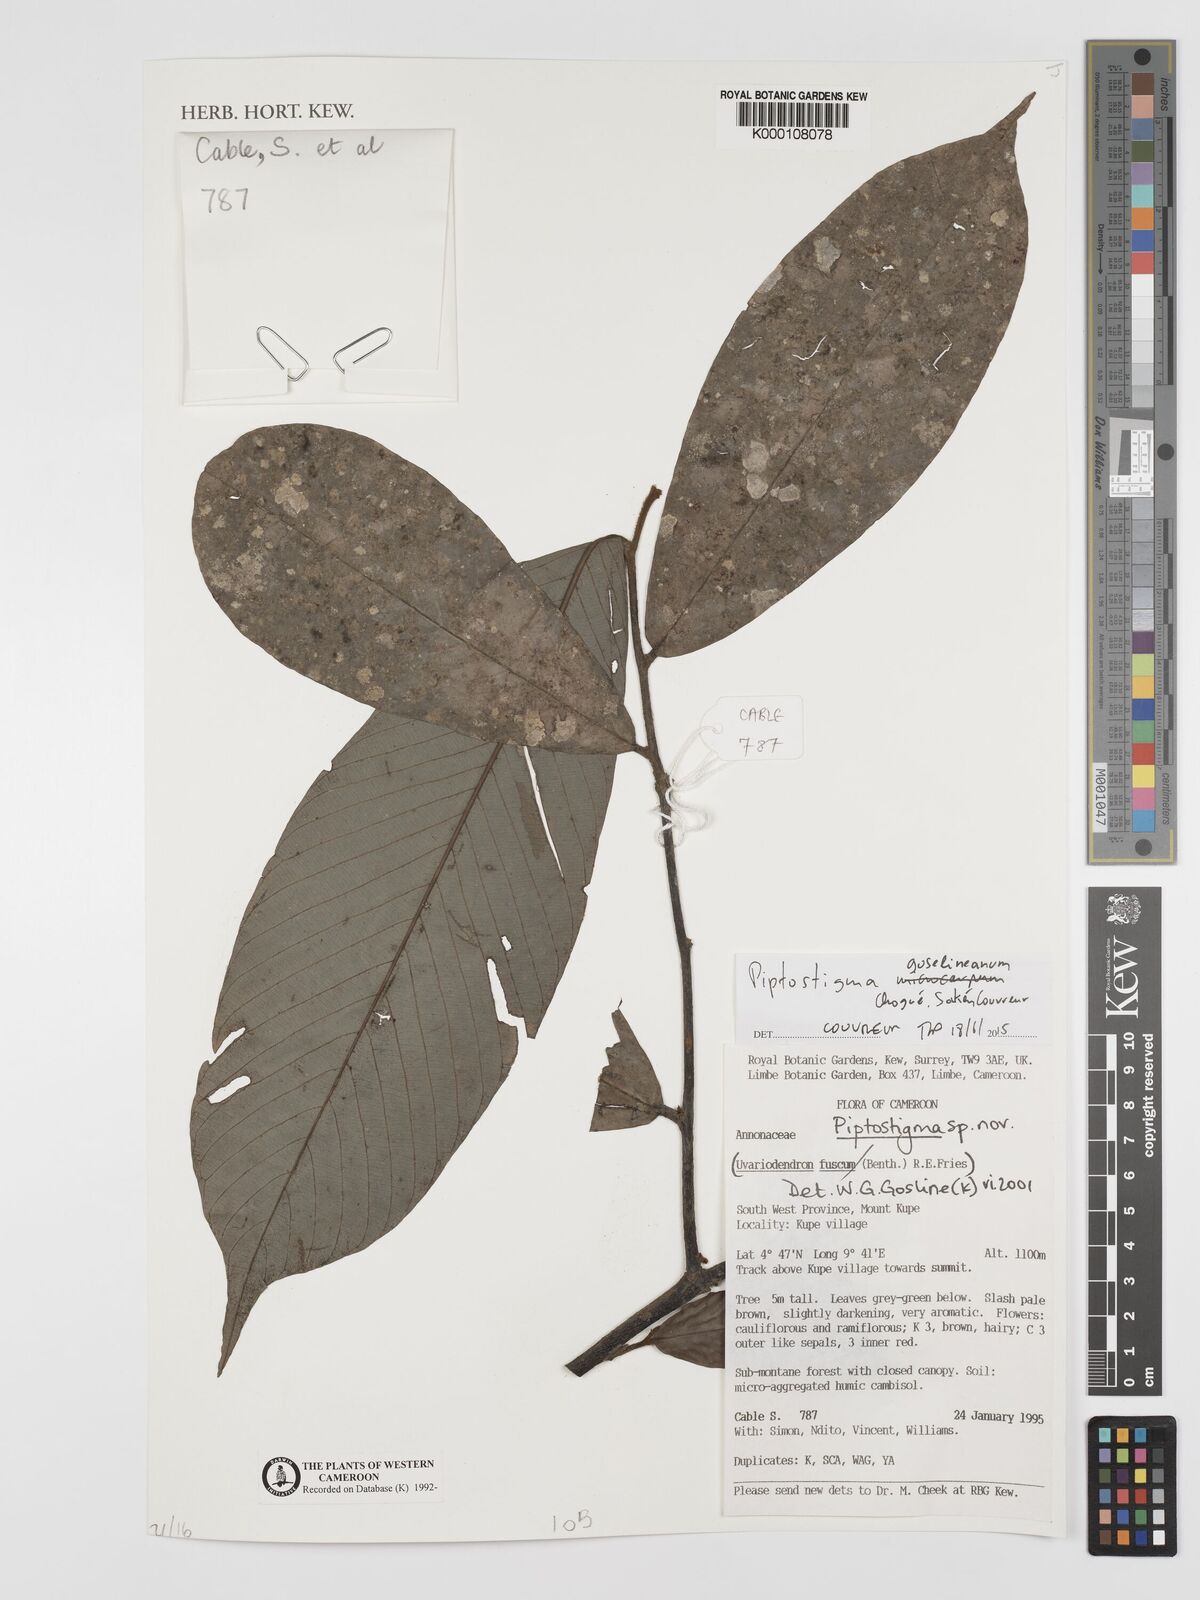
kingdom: Plantae
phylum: Tracheophyta
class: Magnoliopsida
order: Magnoliales
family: Annonaceae
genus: Piptostigma
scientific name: Piptostigma
